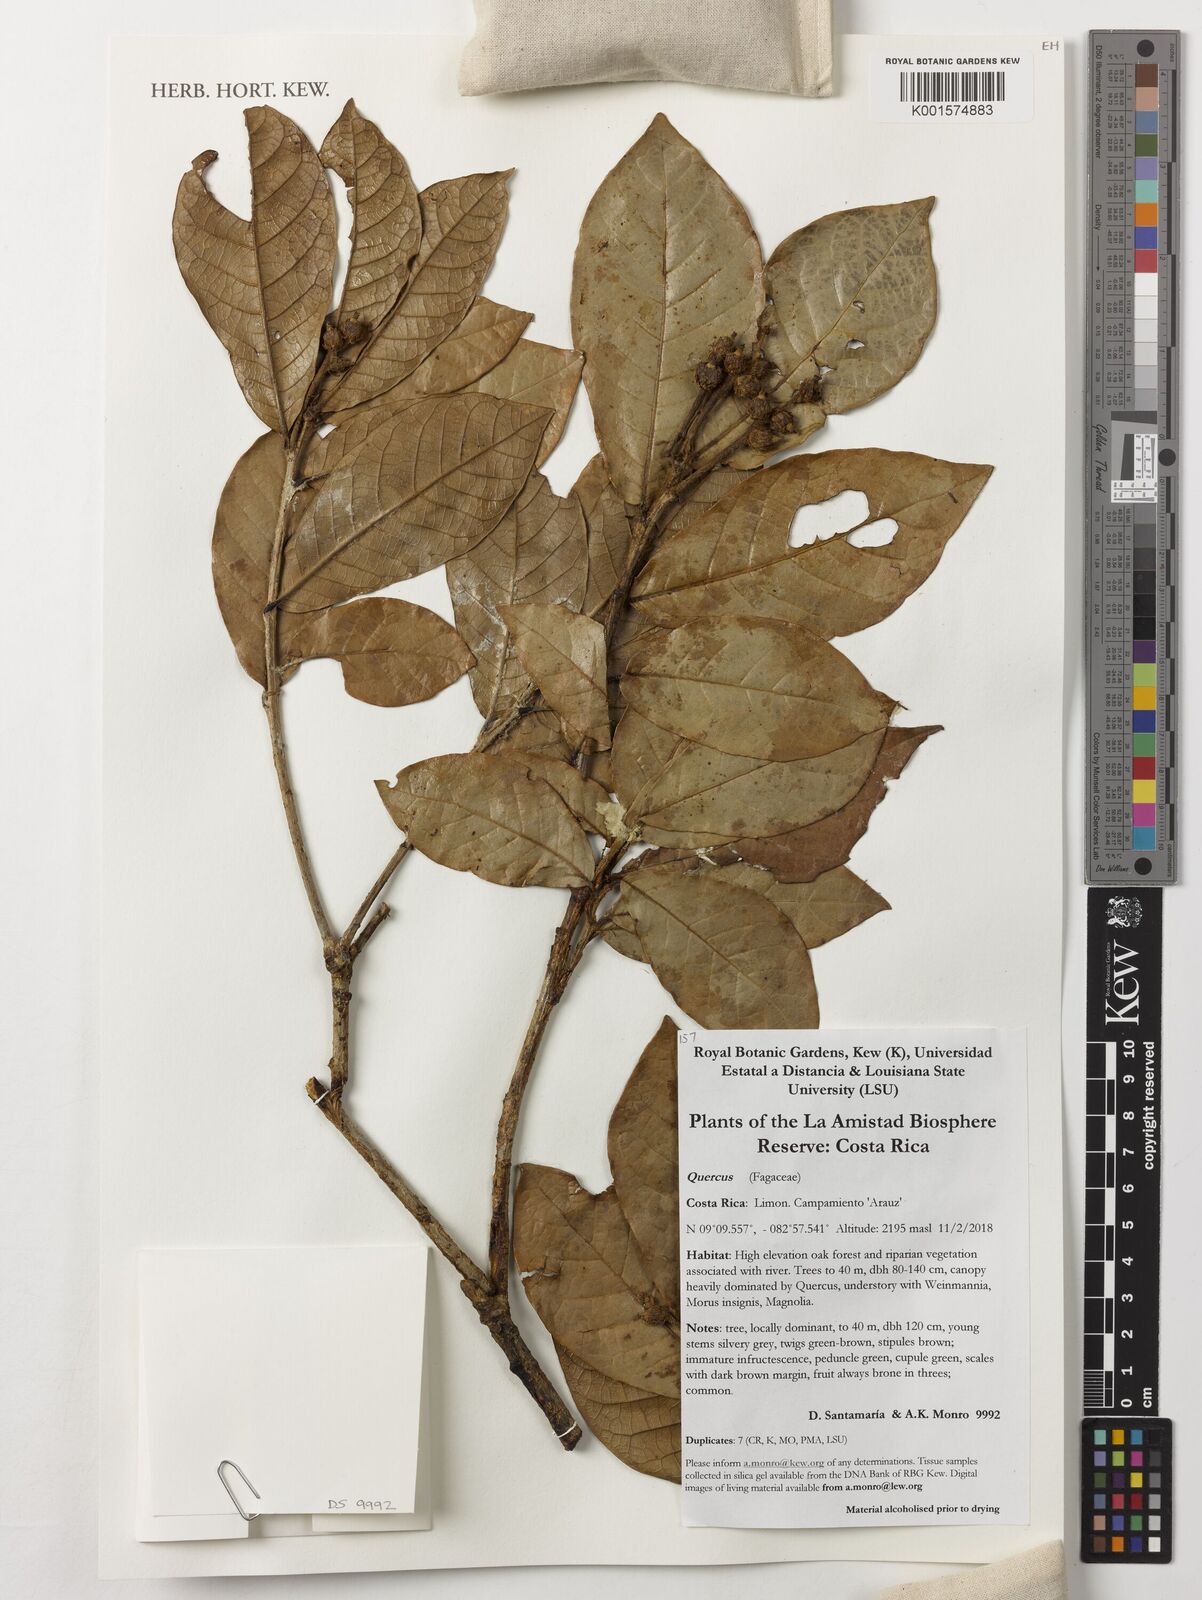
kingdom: Plantae
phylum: Tracheophyta
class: Magnoliopsida
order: Fagales
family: Fagaceae
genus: Quercus
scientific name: Quercus
